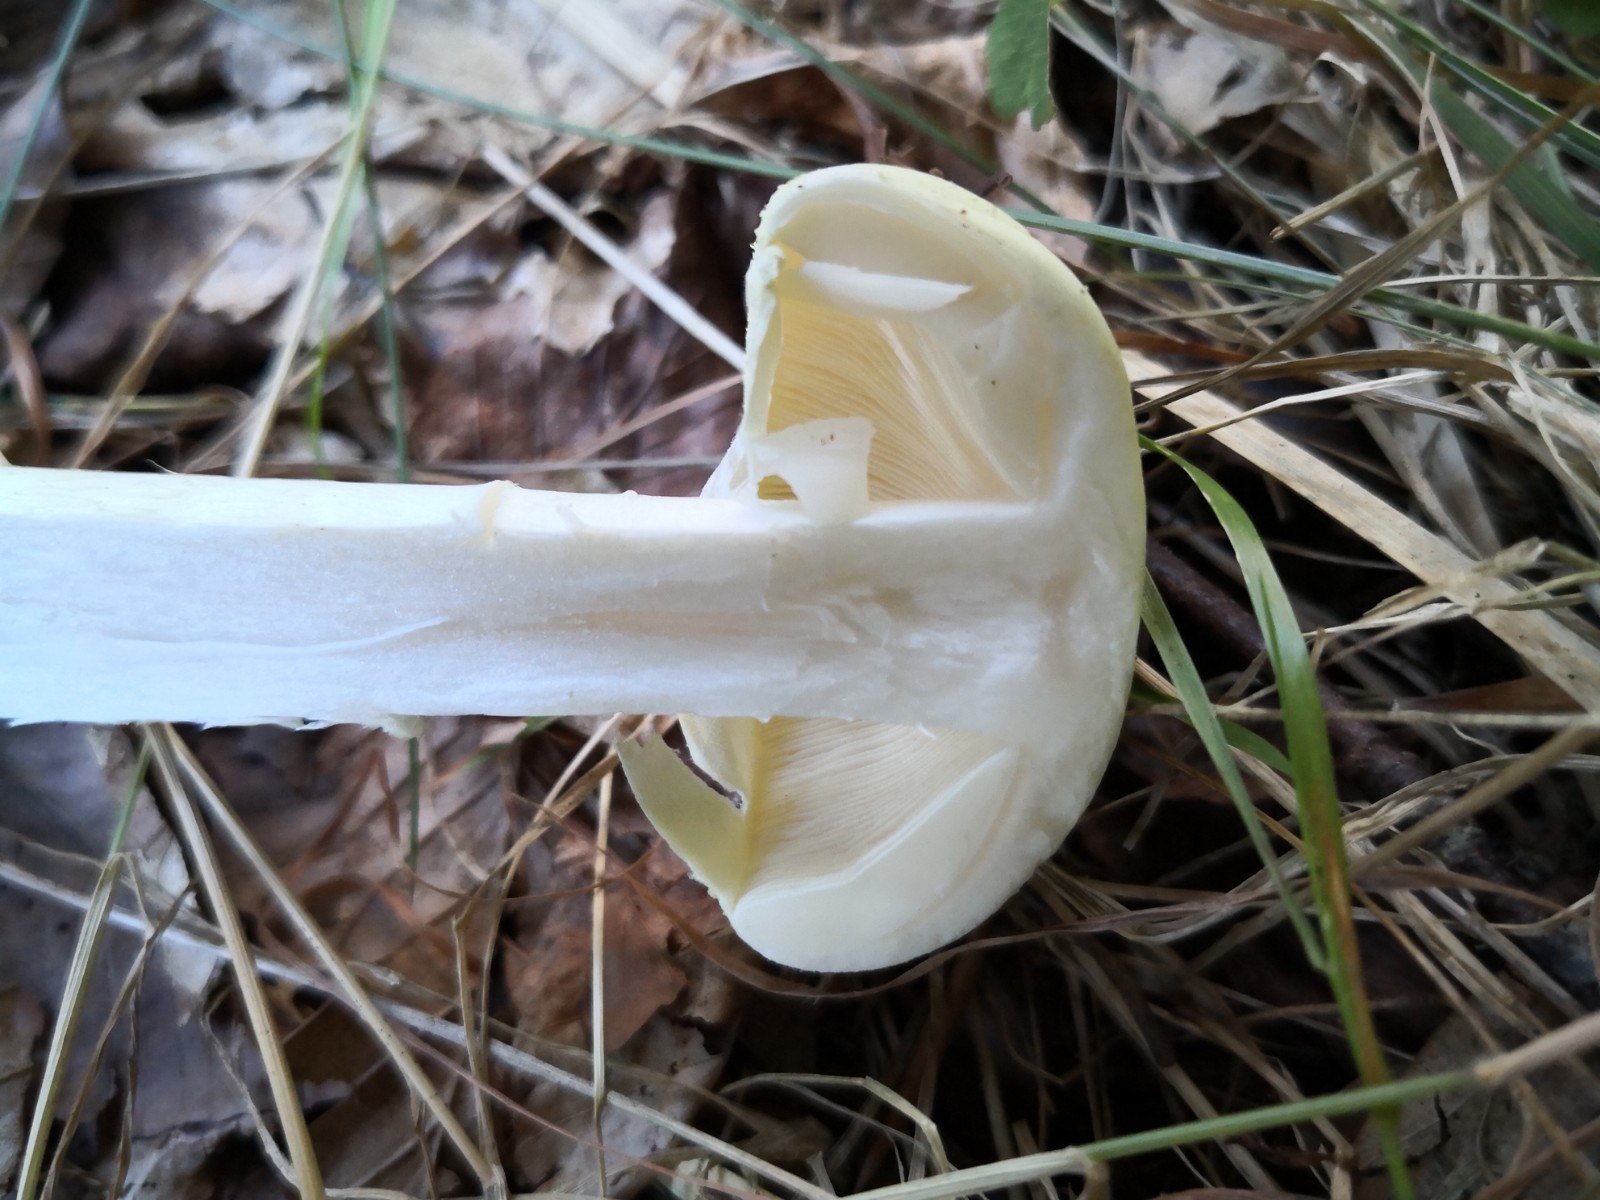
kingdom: Fungi
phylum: Basidiomycota
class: Agaricomycetes
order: Agaricales
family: Amanitaceae
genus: Amanita
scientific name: Amanita phalloides
